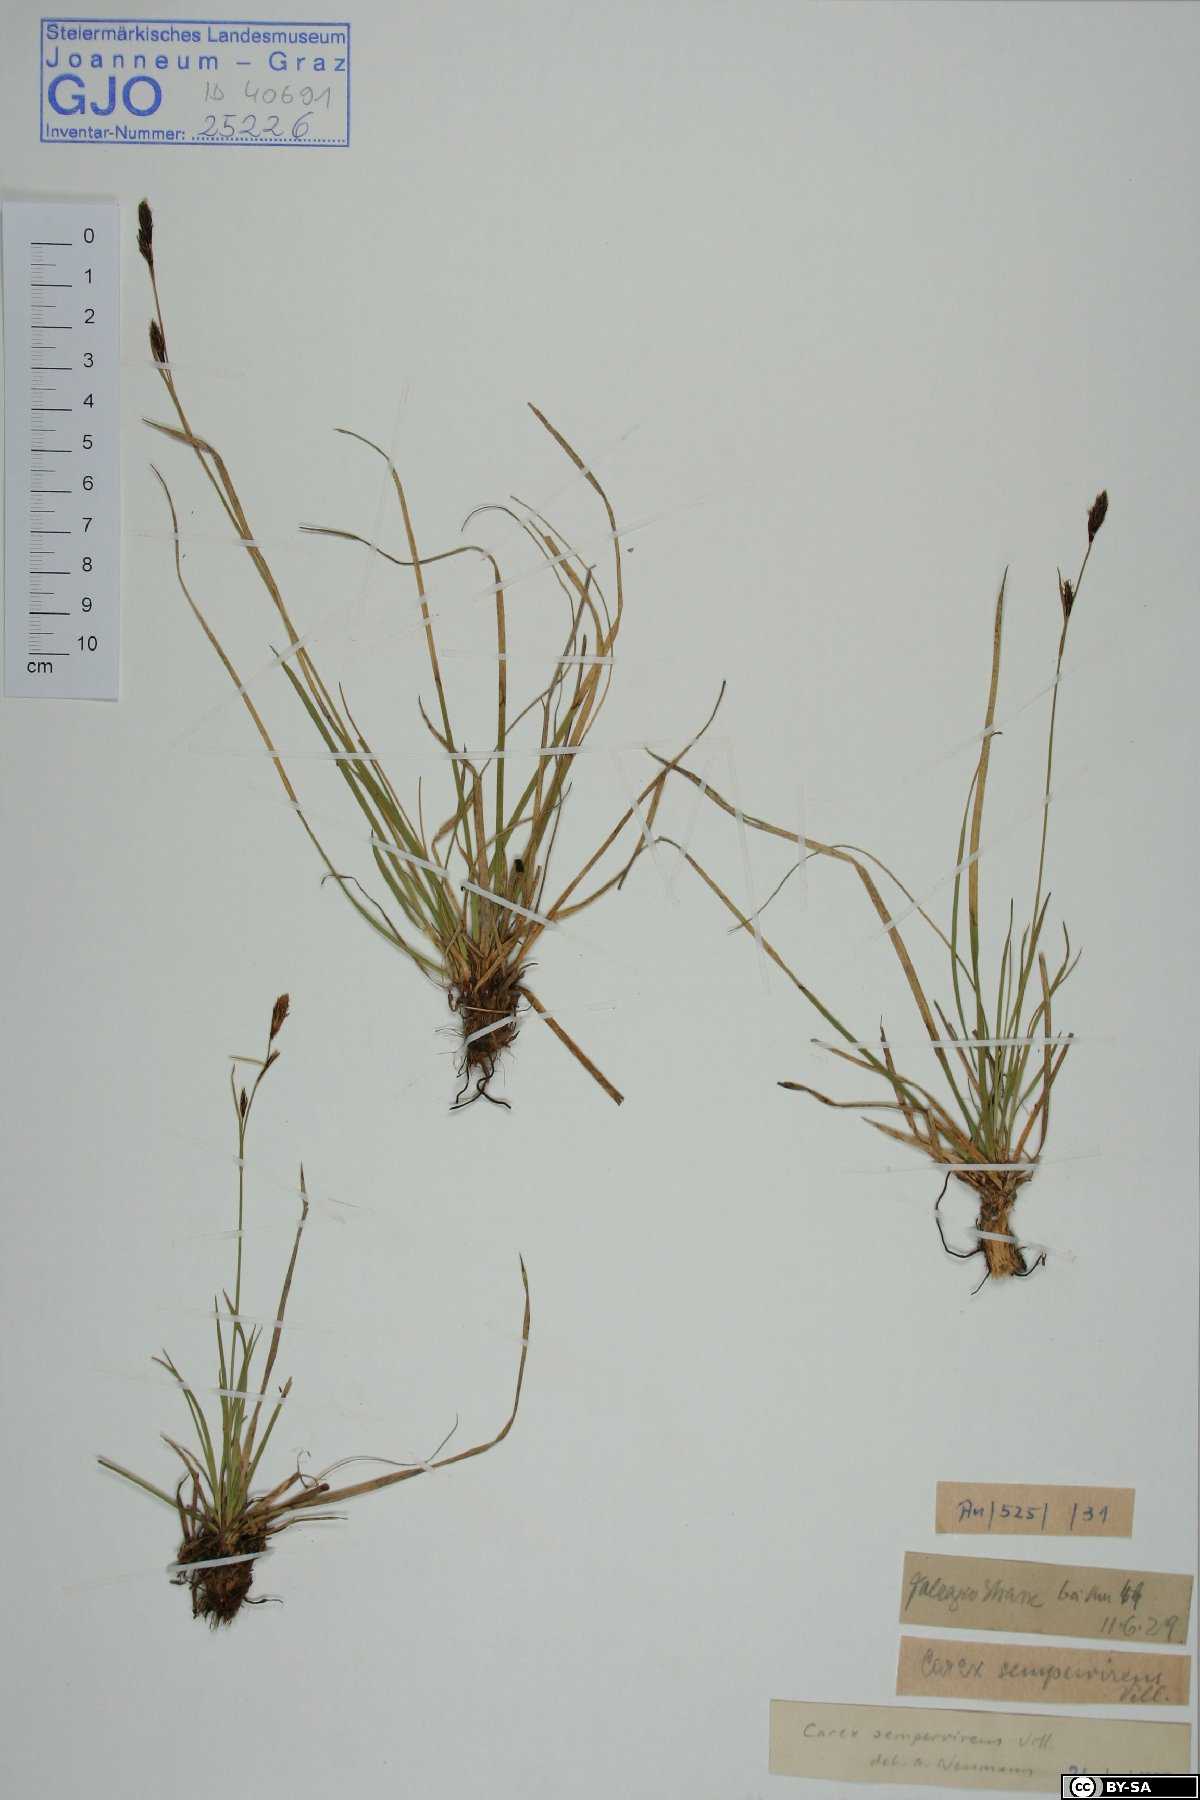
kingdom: Plantae
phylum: Tracheophyta
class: Liliopsida
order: Poales
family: Cyperaceae
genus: Carex
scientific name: Carex sempervirens
